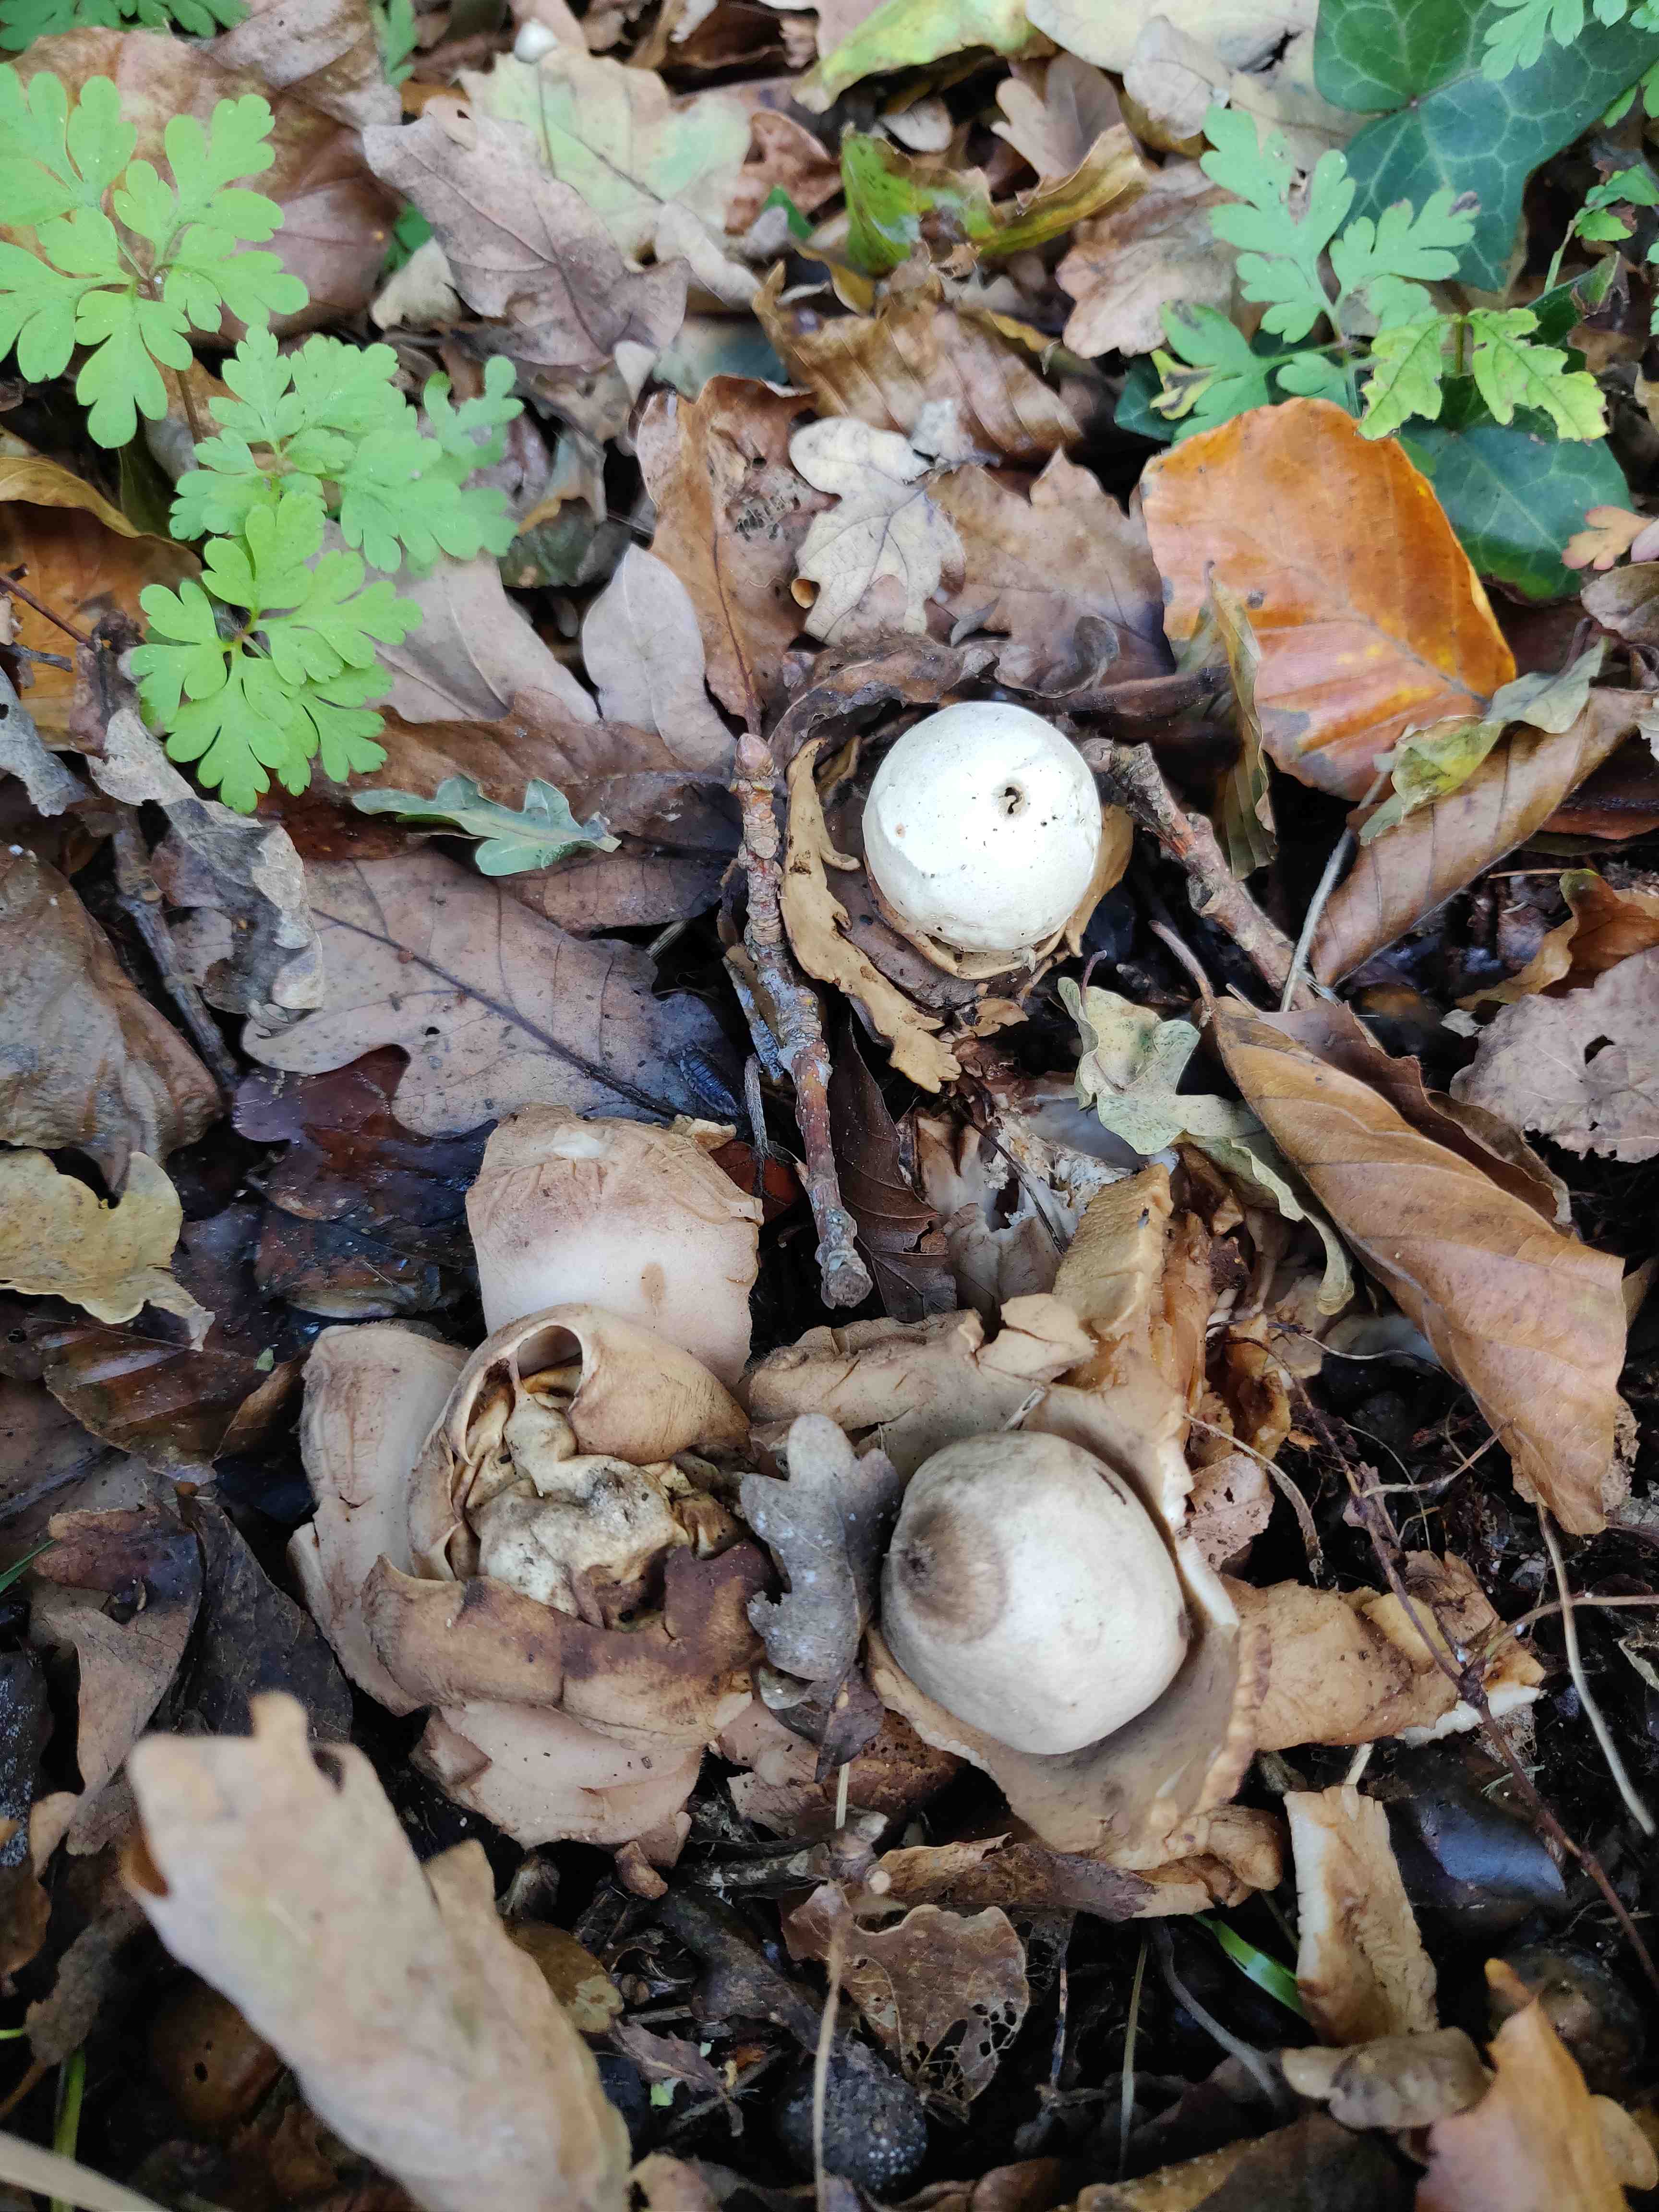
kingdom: Fungi
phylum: Basidiomycota
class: Agaricomycetes
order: Geastrales
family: Geastraceae
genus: Geastrum
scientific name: Geastrum michelianum
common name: kødet stjernebold
